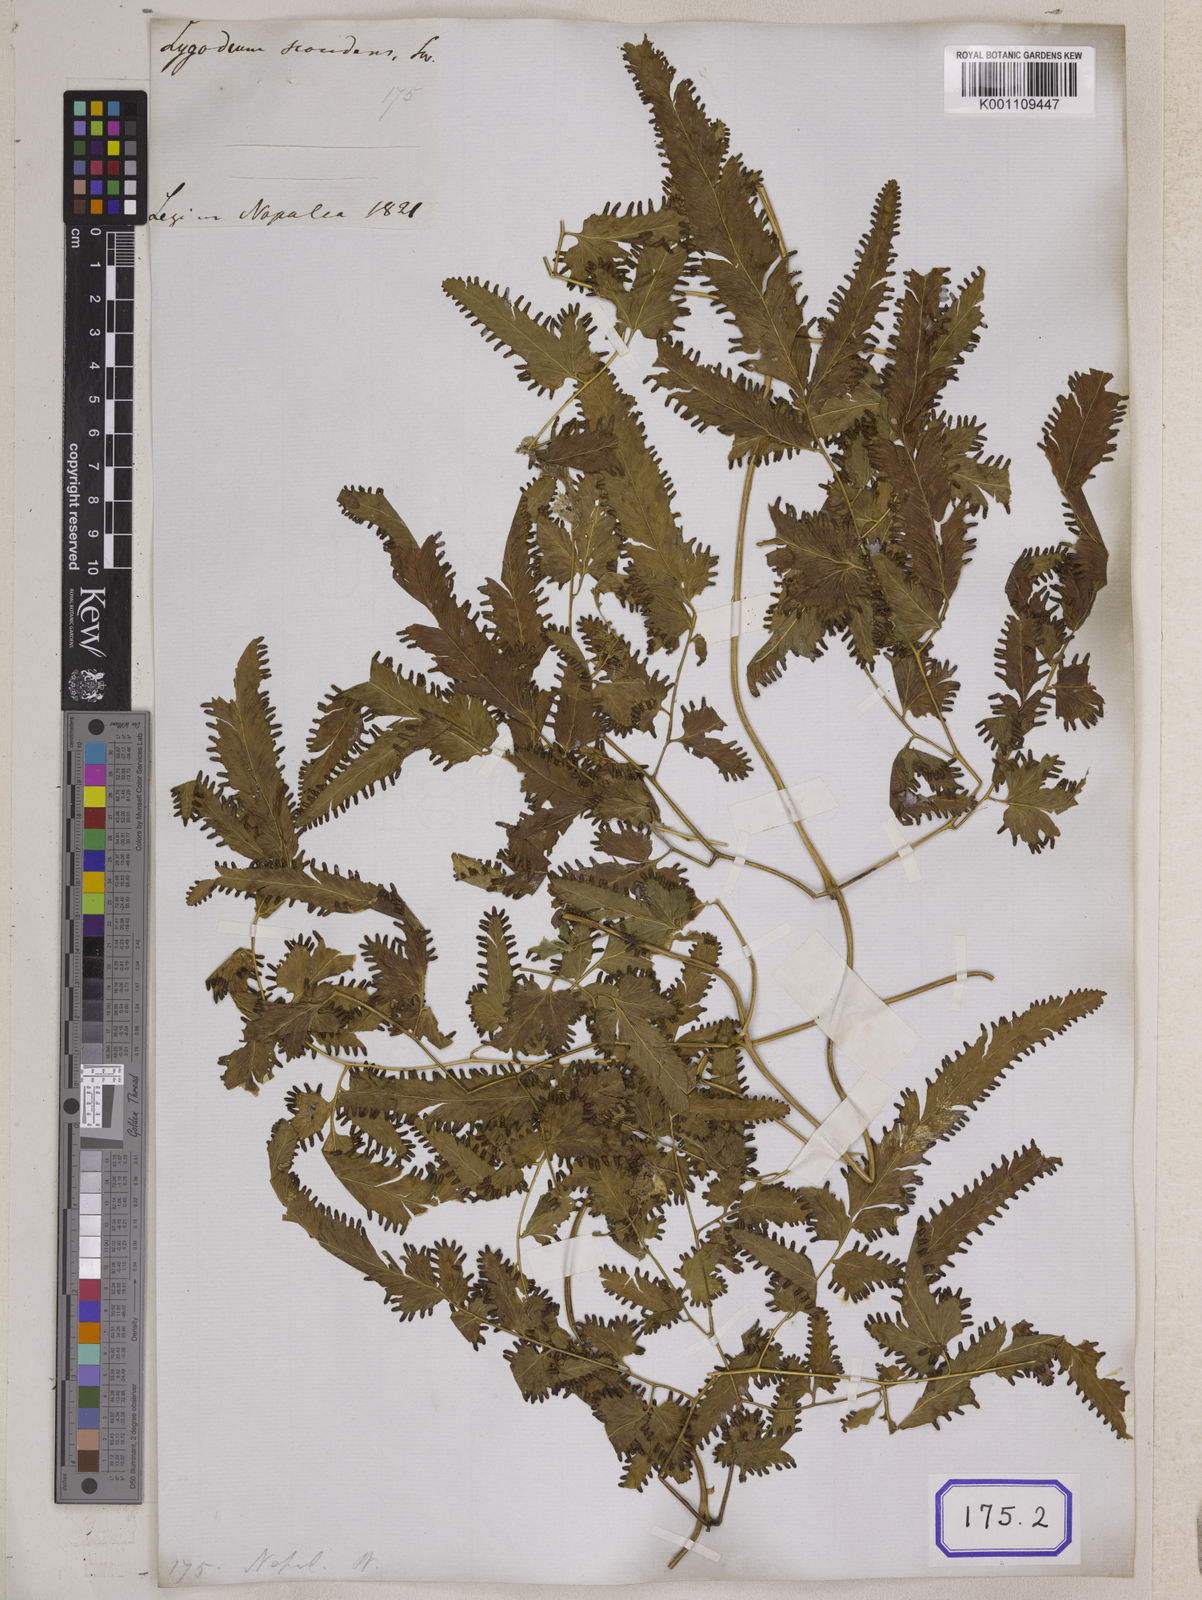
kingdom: Plantae
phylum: Tracheophyta
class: Polypodiopsida
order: Schizaeales
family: Lygodiaceae
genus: Lygodium
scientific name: Lygodium longifolium
